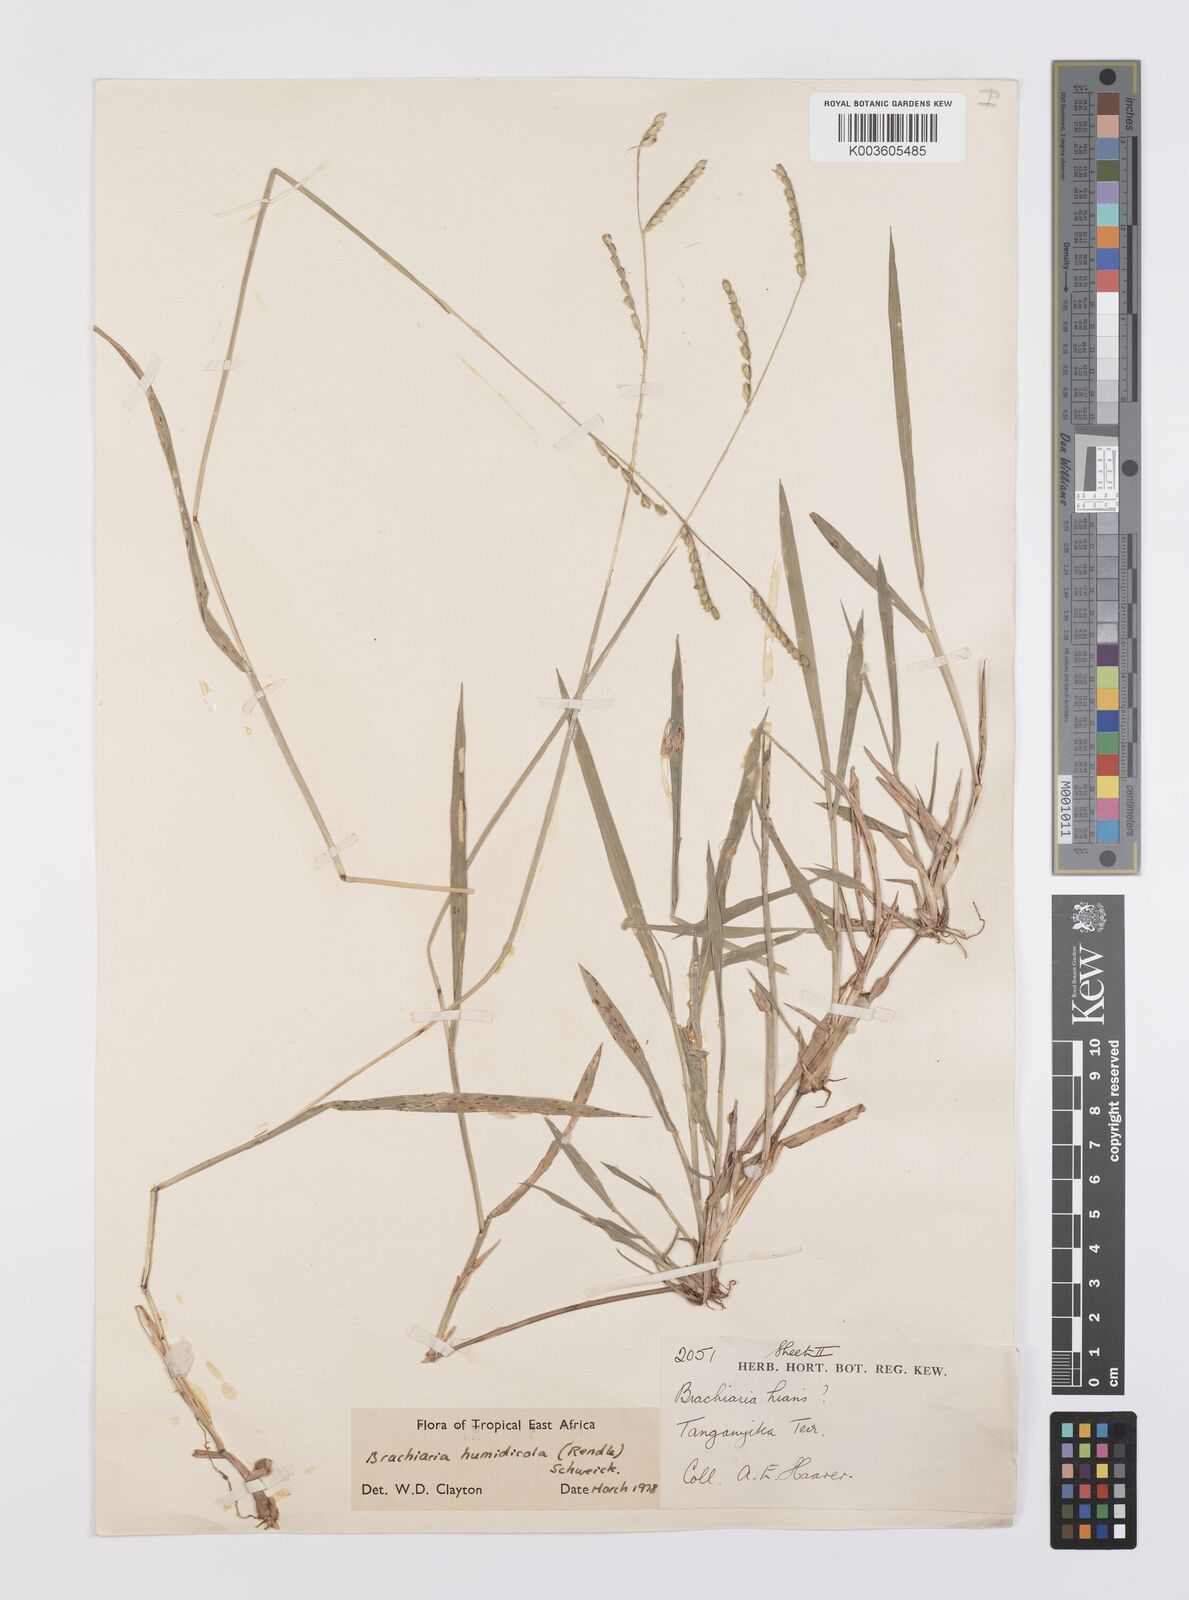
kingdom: Plantae
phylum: Tracheophyta
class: Liliopsida
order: Poales
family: Poaceae
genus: Urochloa
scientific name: Urochloa dictyoneura
